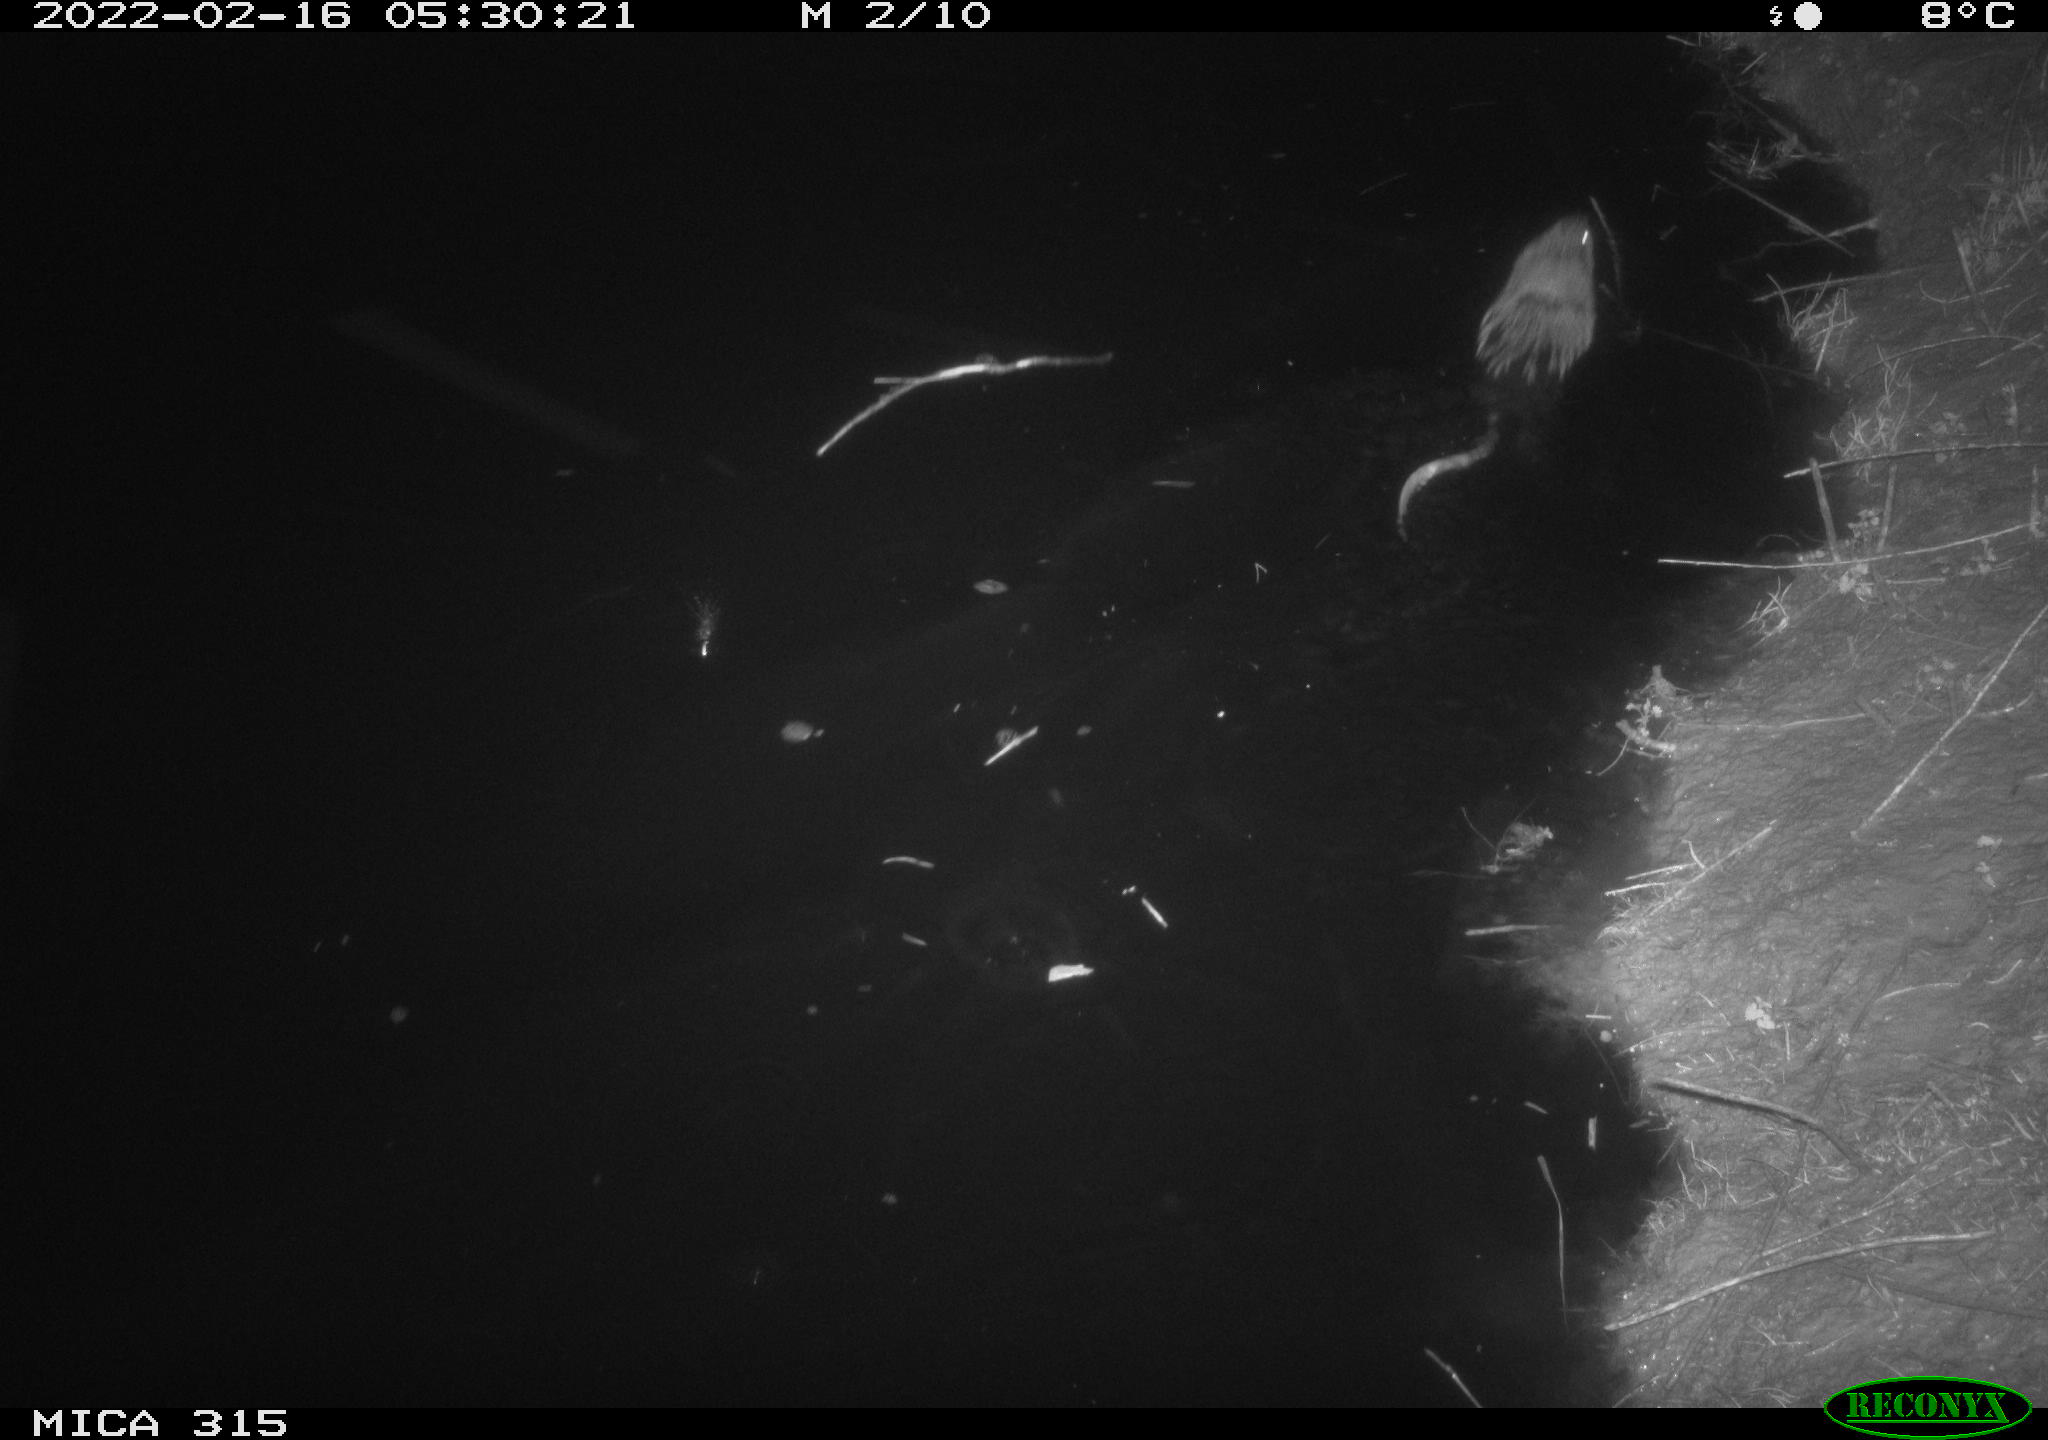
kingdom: Animalia
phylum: Chordata
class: Mammalia
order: Rodentia
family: Cricetidae
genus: Ondatra
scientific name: Ondatra zibethicus
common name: Muskrat
